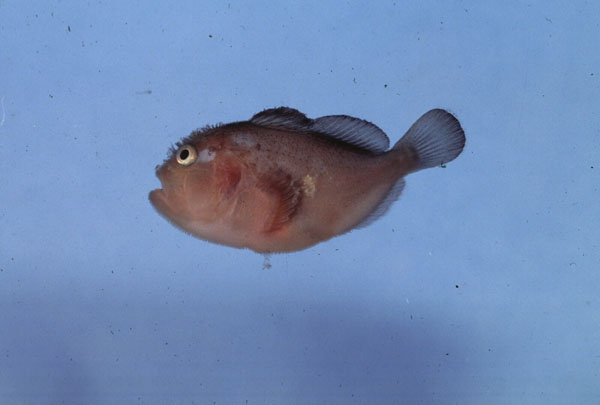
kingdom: Animalia
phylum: Chordata
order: Scorpaeniformes
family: Scorpaenidae
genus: Caracanthus
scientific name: Caracanthus unipinna
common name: Coral croucher
